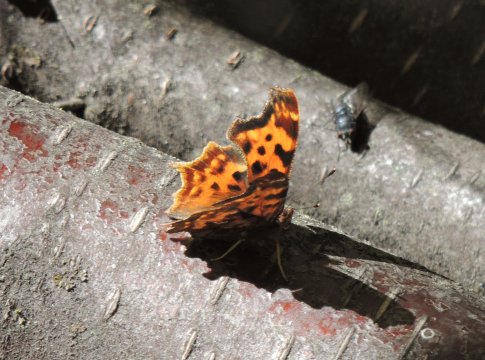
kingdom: Animalia
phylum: Arthropoda
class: Insecta
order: Lepidoptera
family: Nymphalidae
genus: Polygonia
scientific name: Polygonia satyrus
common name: Satyr Comma
